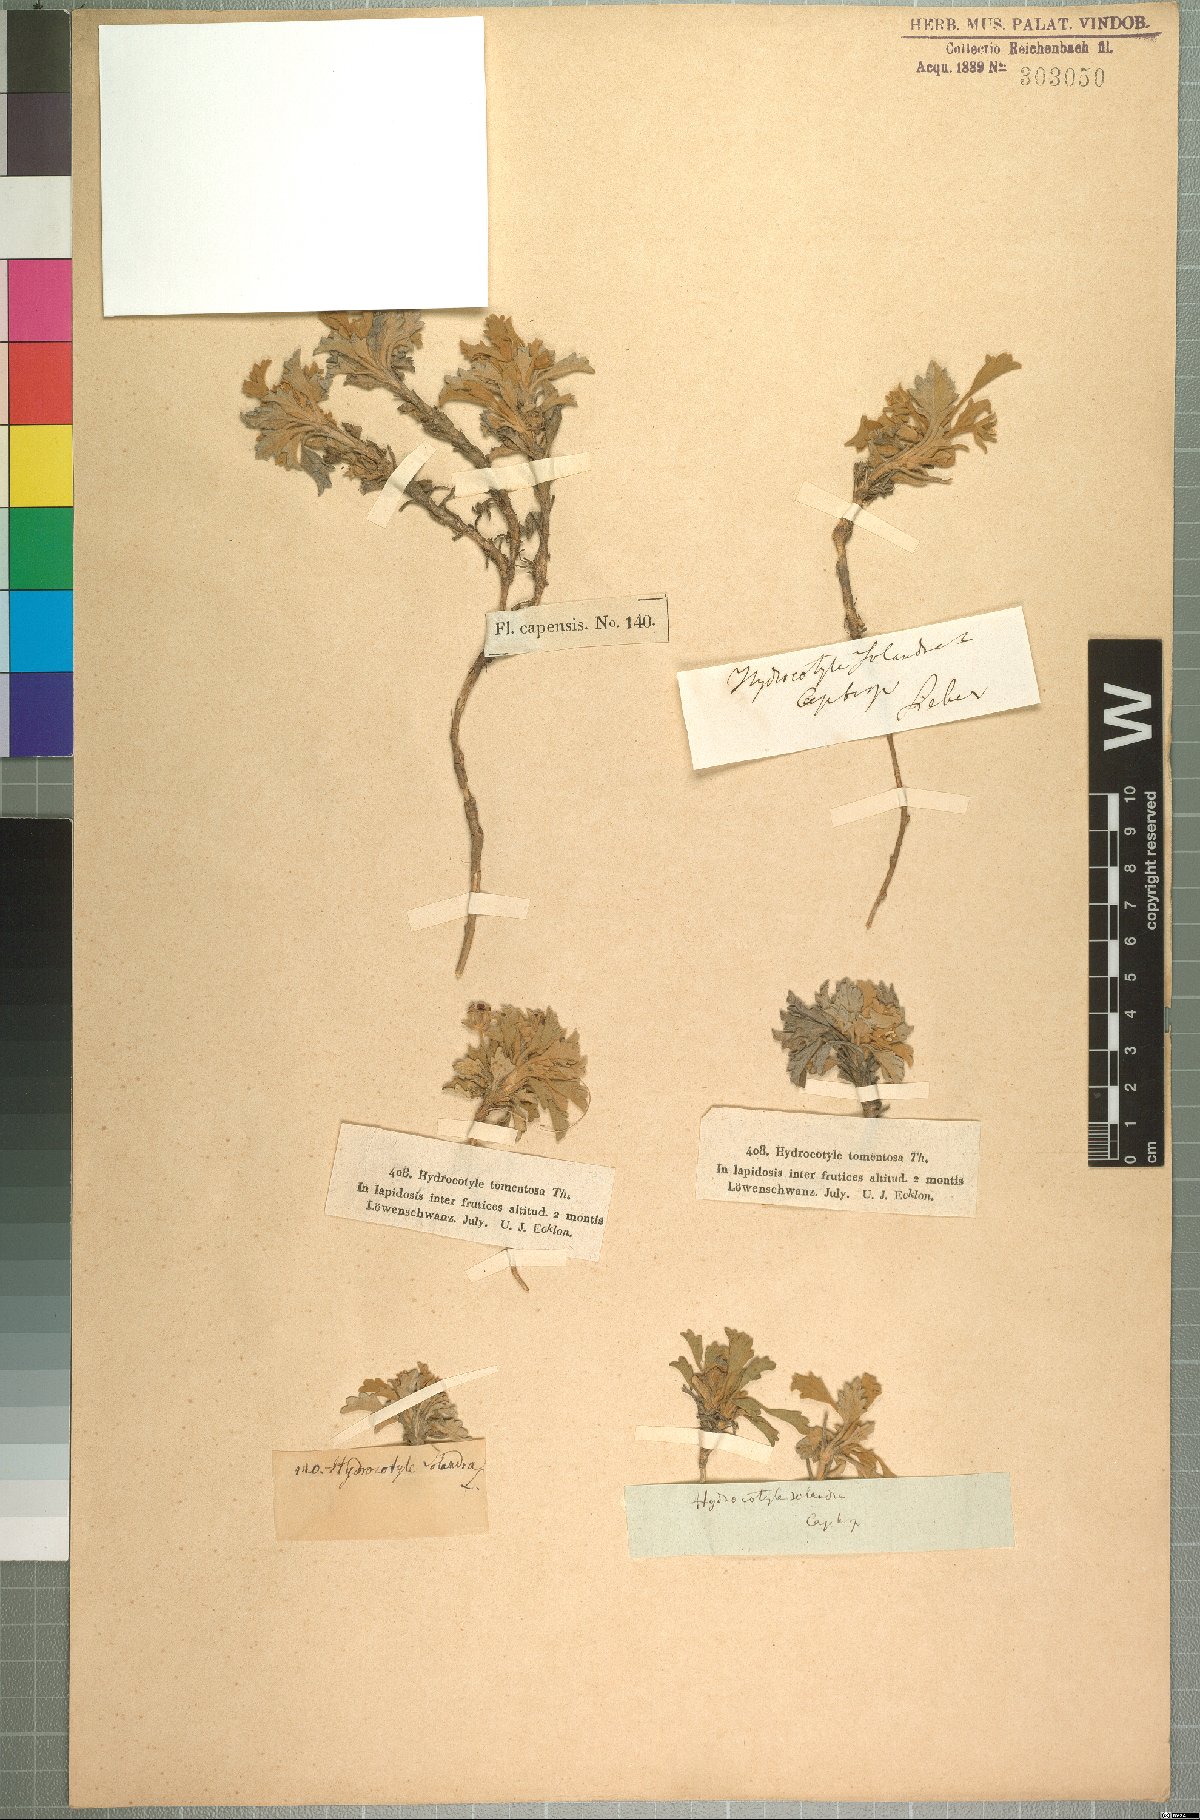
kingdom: Plantae
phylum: Tracheophyta
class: Magnoliopsida
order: Apiales
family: Apiaceae
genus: Centella
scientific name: Centella capensis
